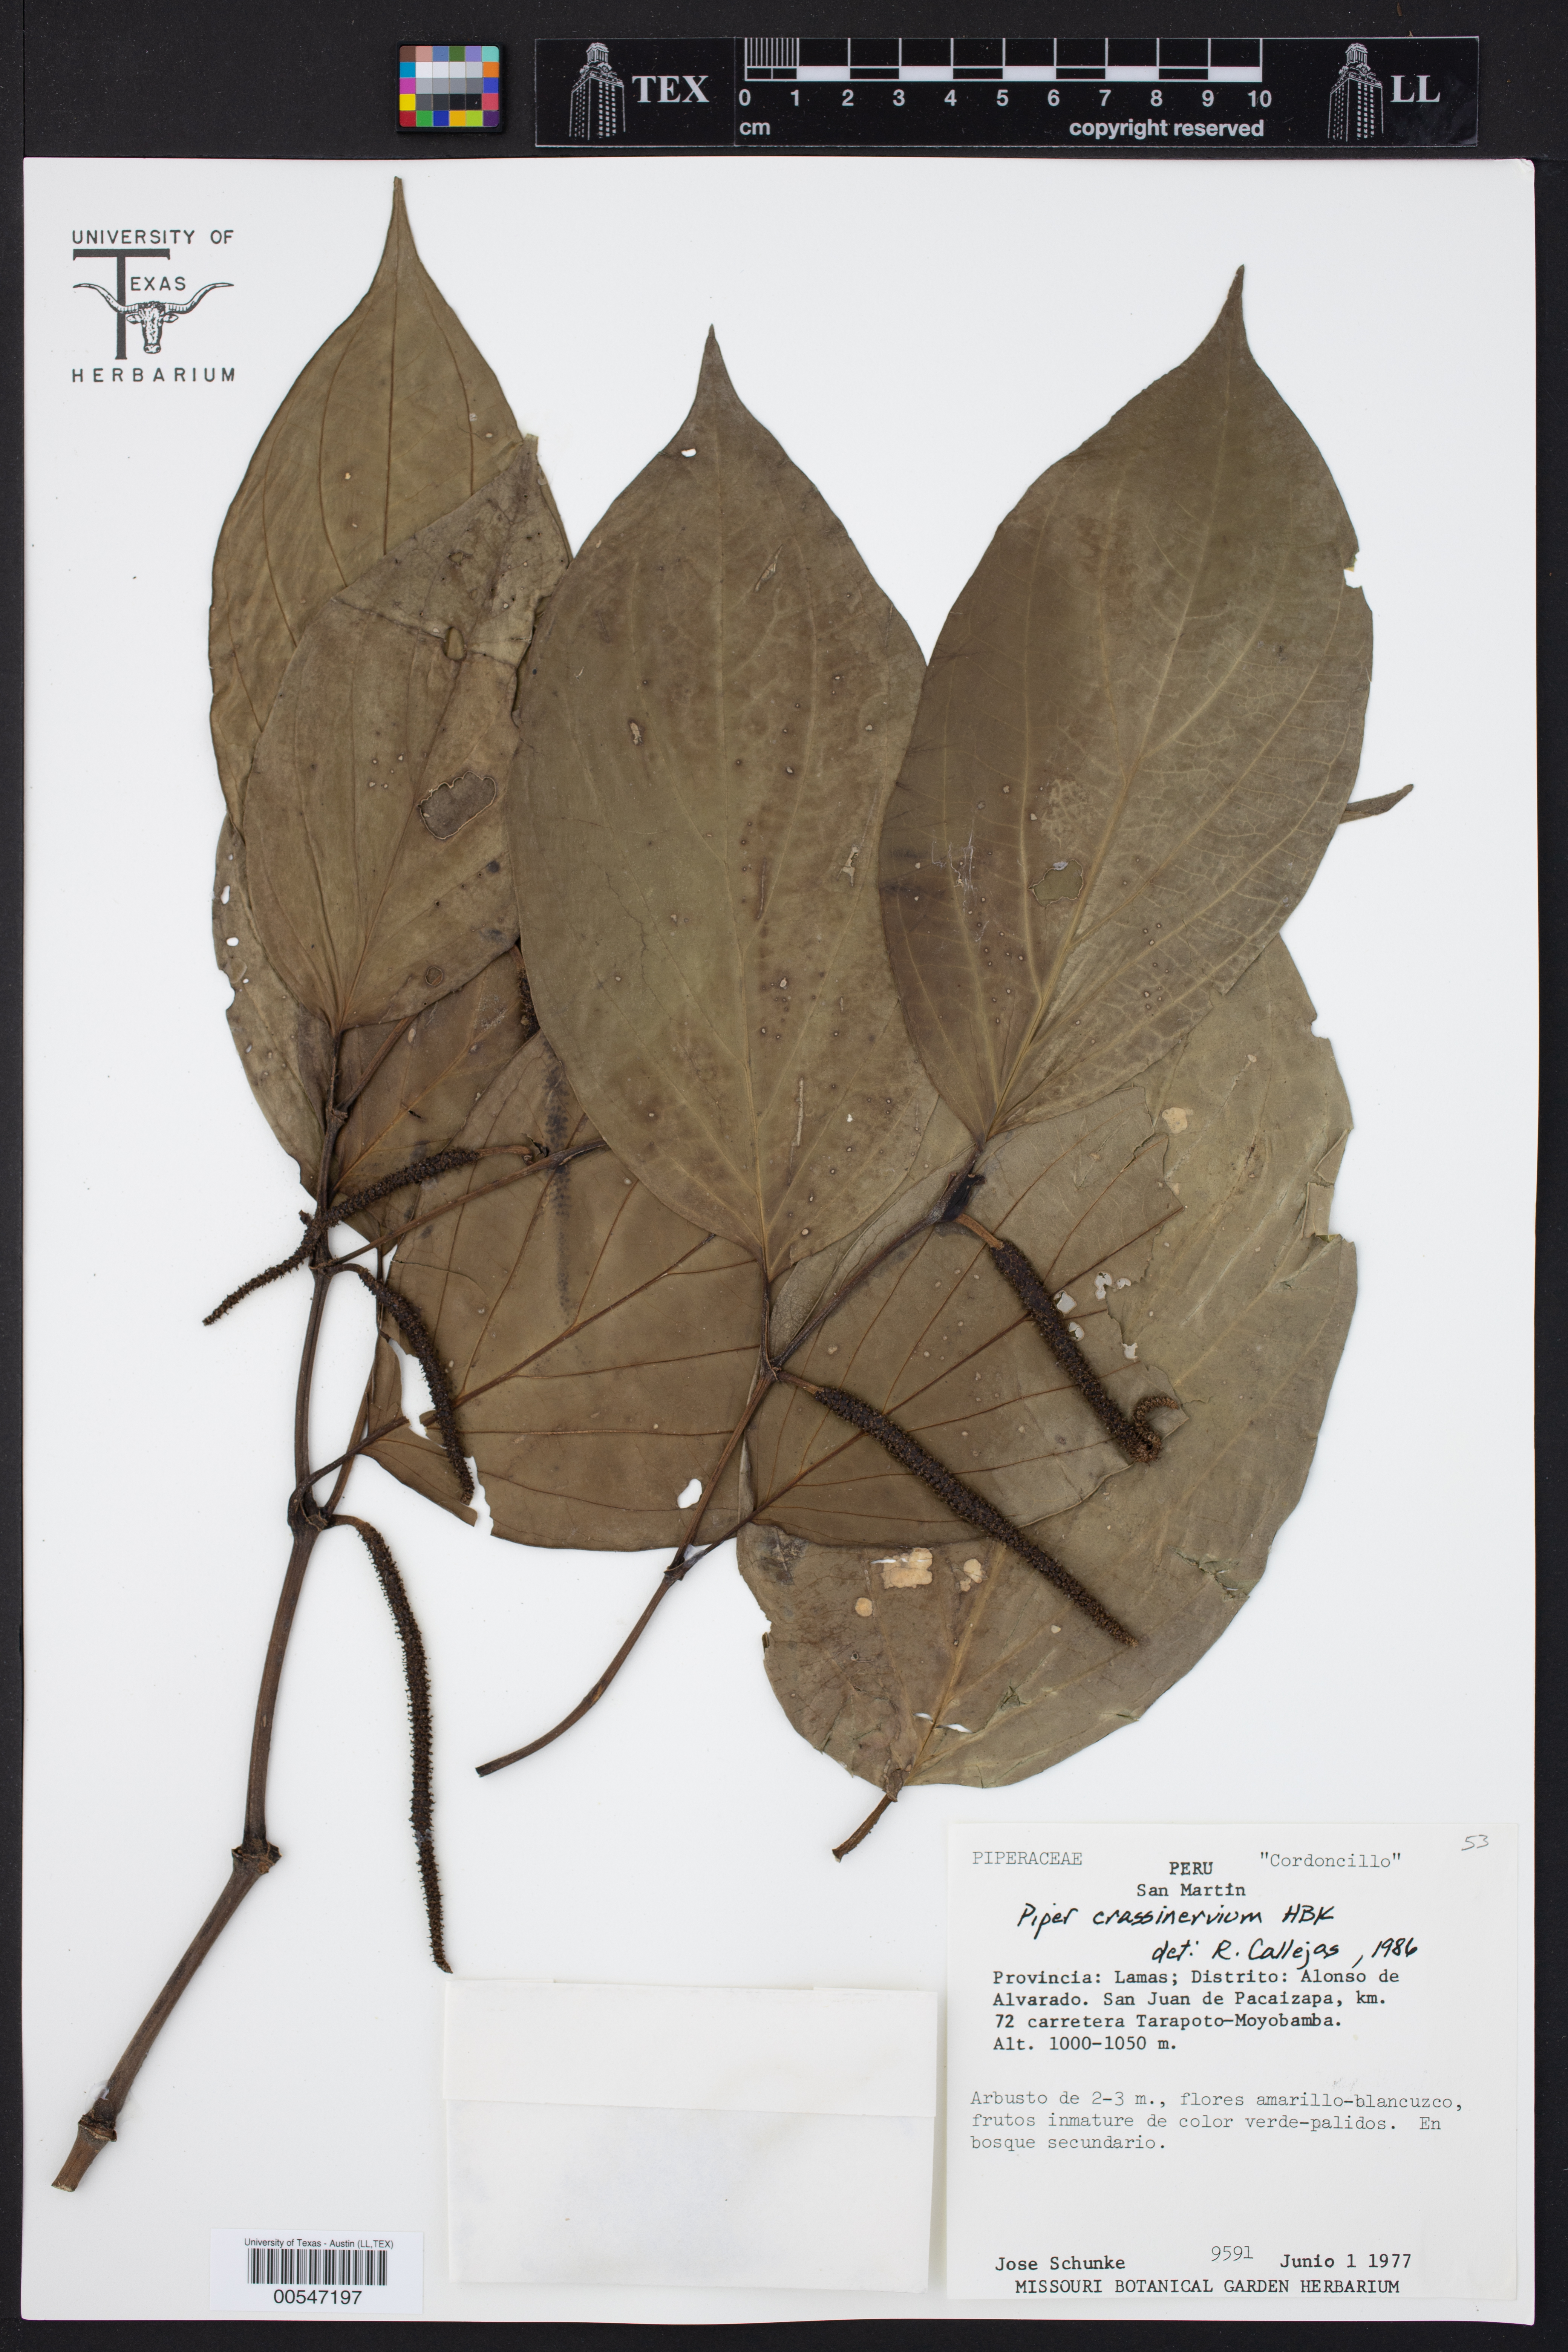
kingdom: Plantae
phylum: Tracheophyta
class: Magnoliopsida
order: Piperales
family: Piperaceae
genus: Piper
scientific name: Piper crassinervium
